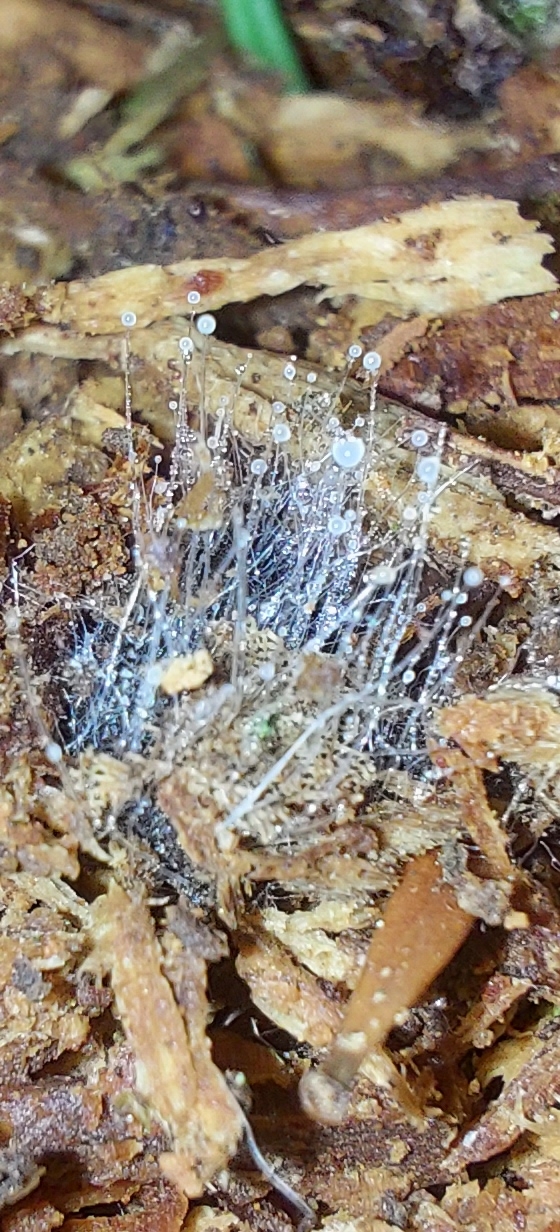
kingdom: Fungi
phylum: Mucoromycota
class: Mucoromycetes
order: Mucorales
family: Mucoraceae
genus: Mucor
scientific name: Mucor
